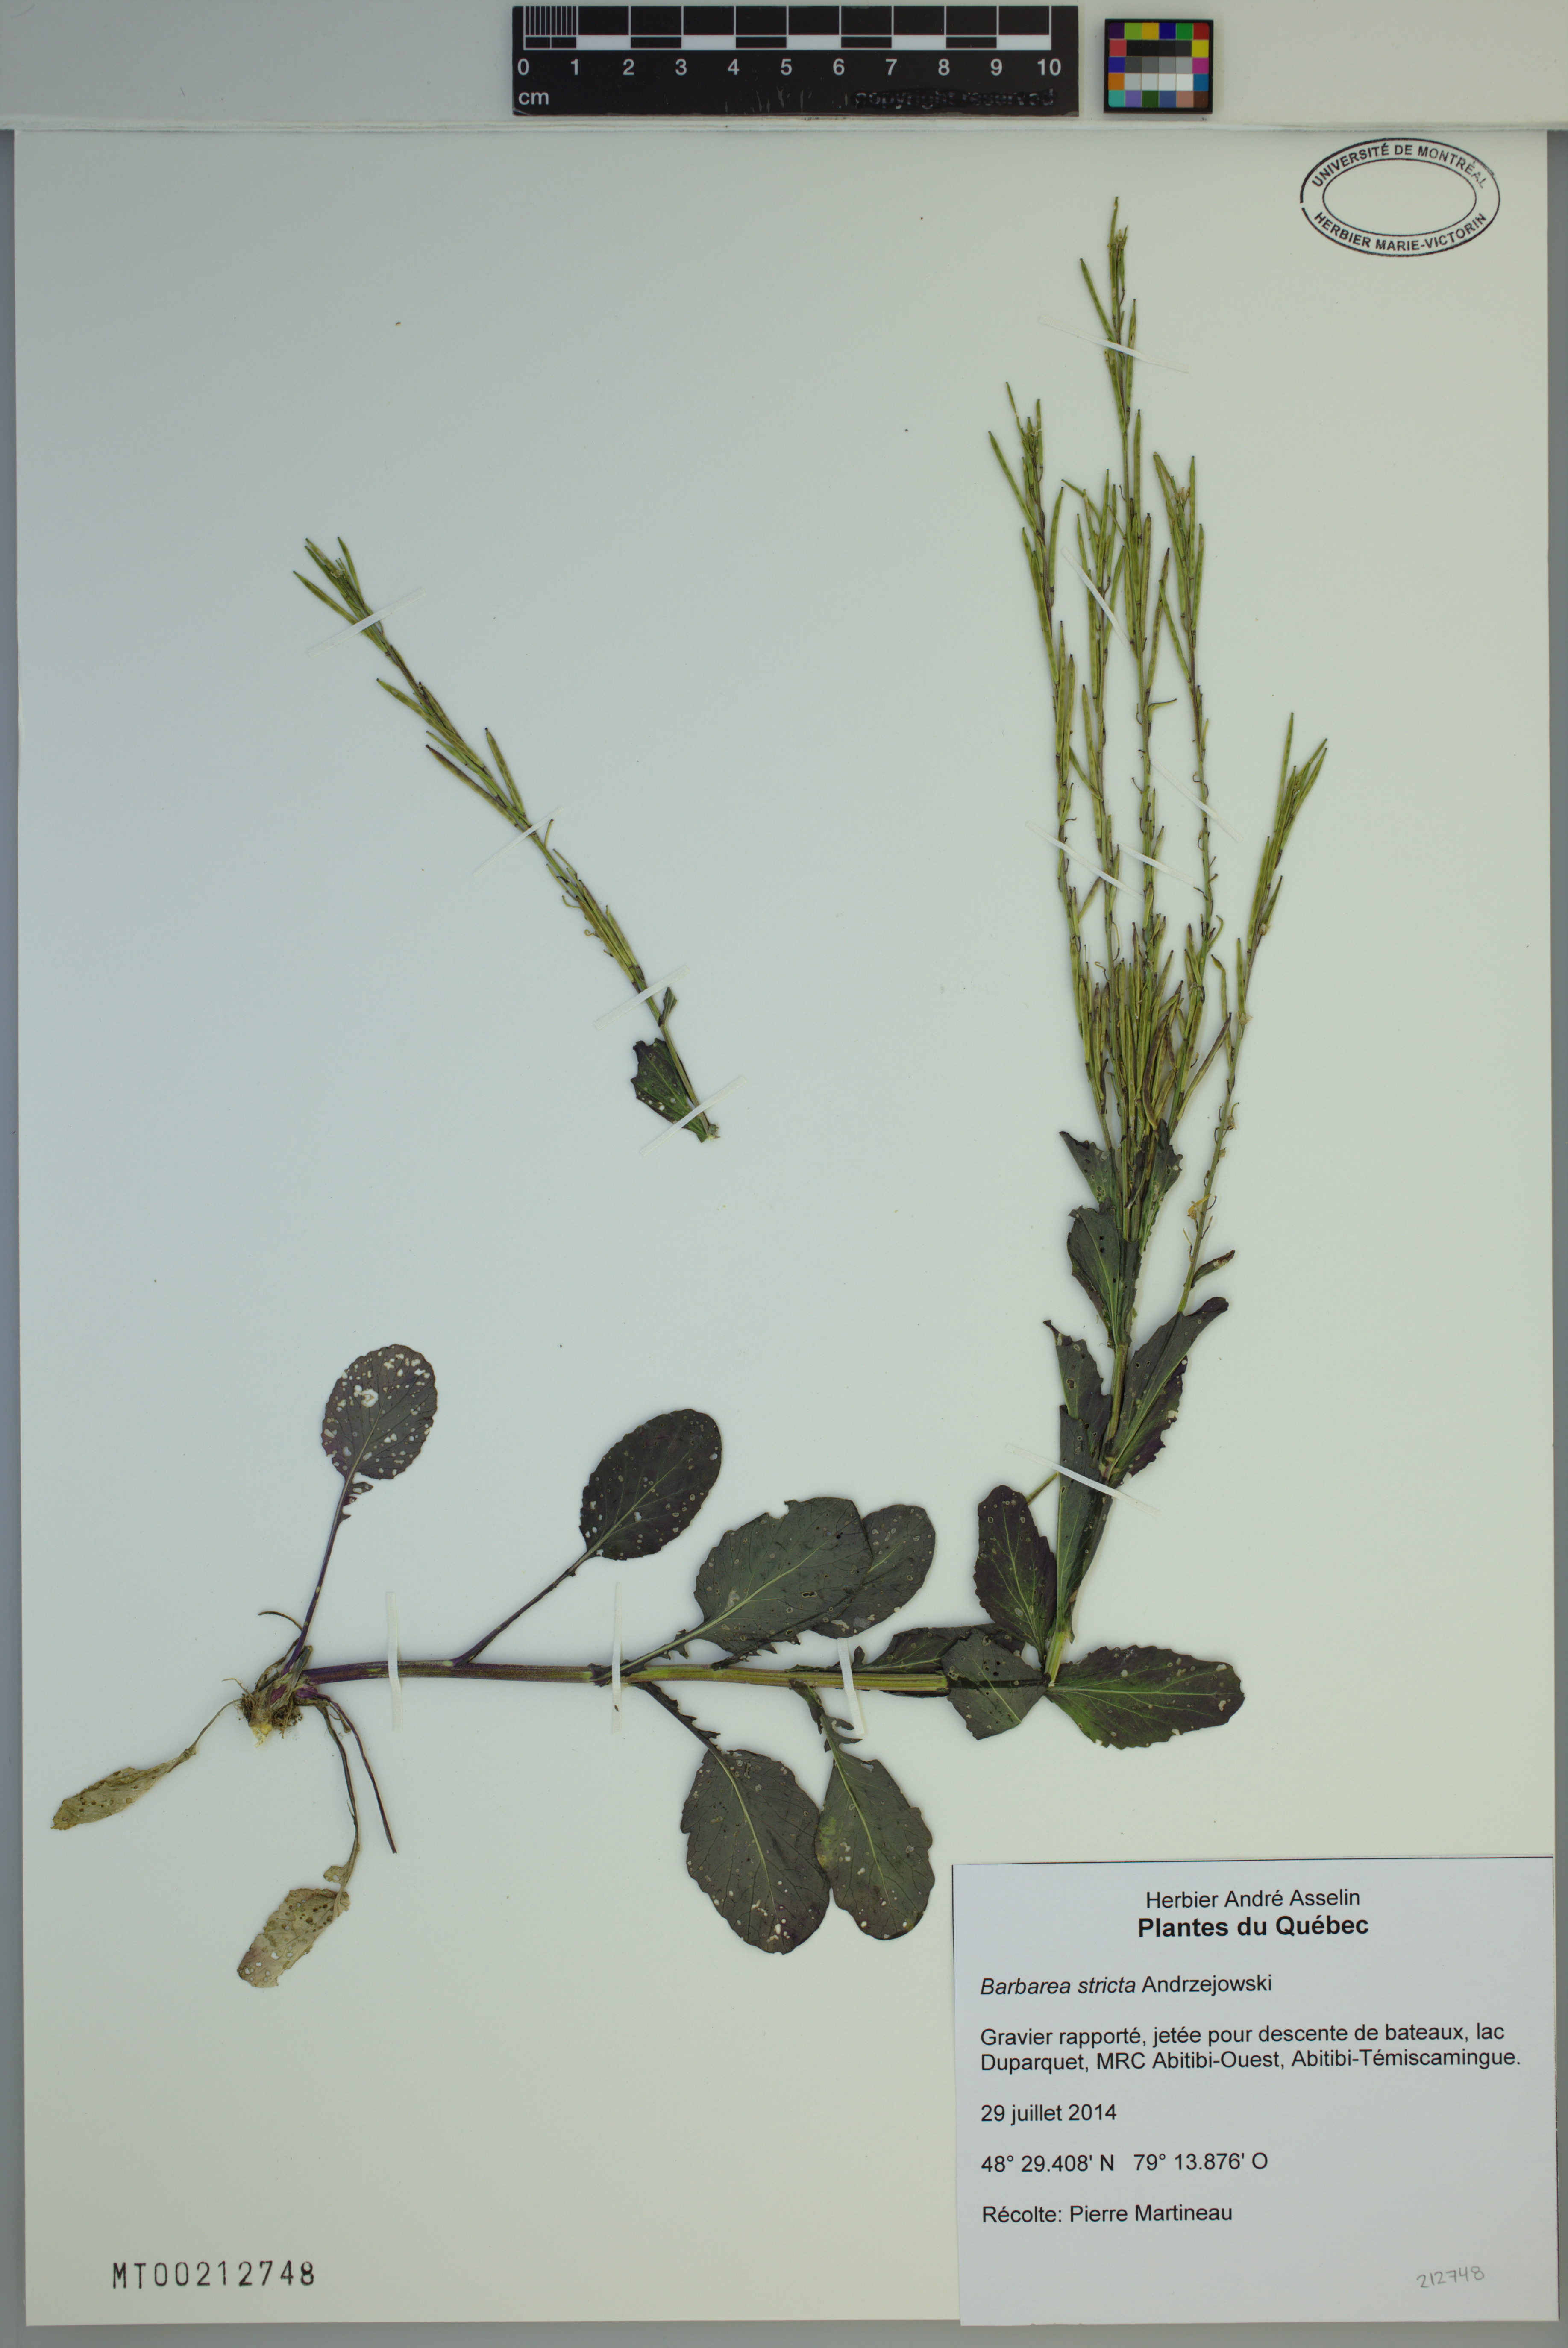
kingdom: Plantae
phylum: Tracheophyta
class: Magnoliopsida
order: Brassicales
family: Brassicaceae
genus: Barbarea
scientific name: Barbarea stricta
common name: Small-flowered winter-cress
